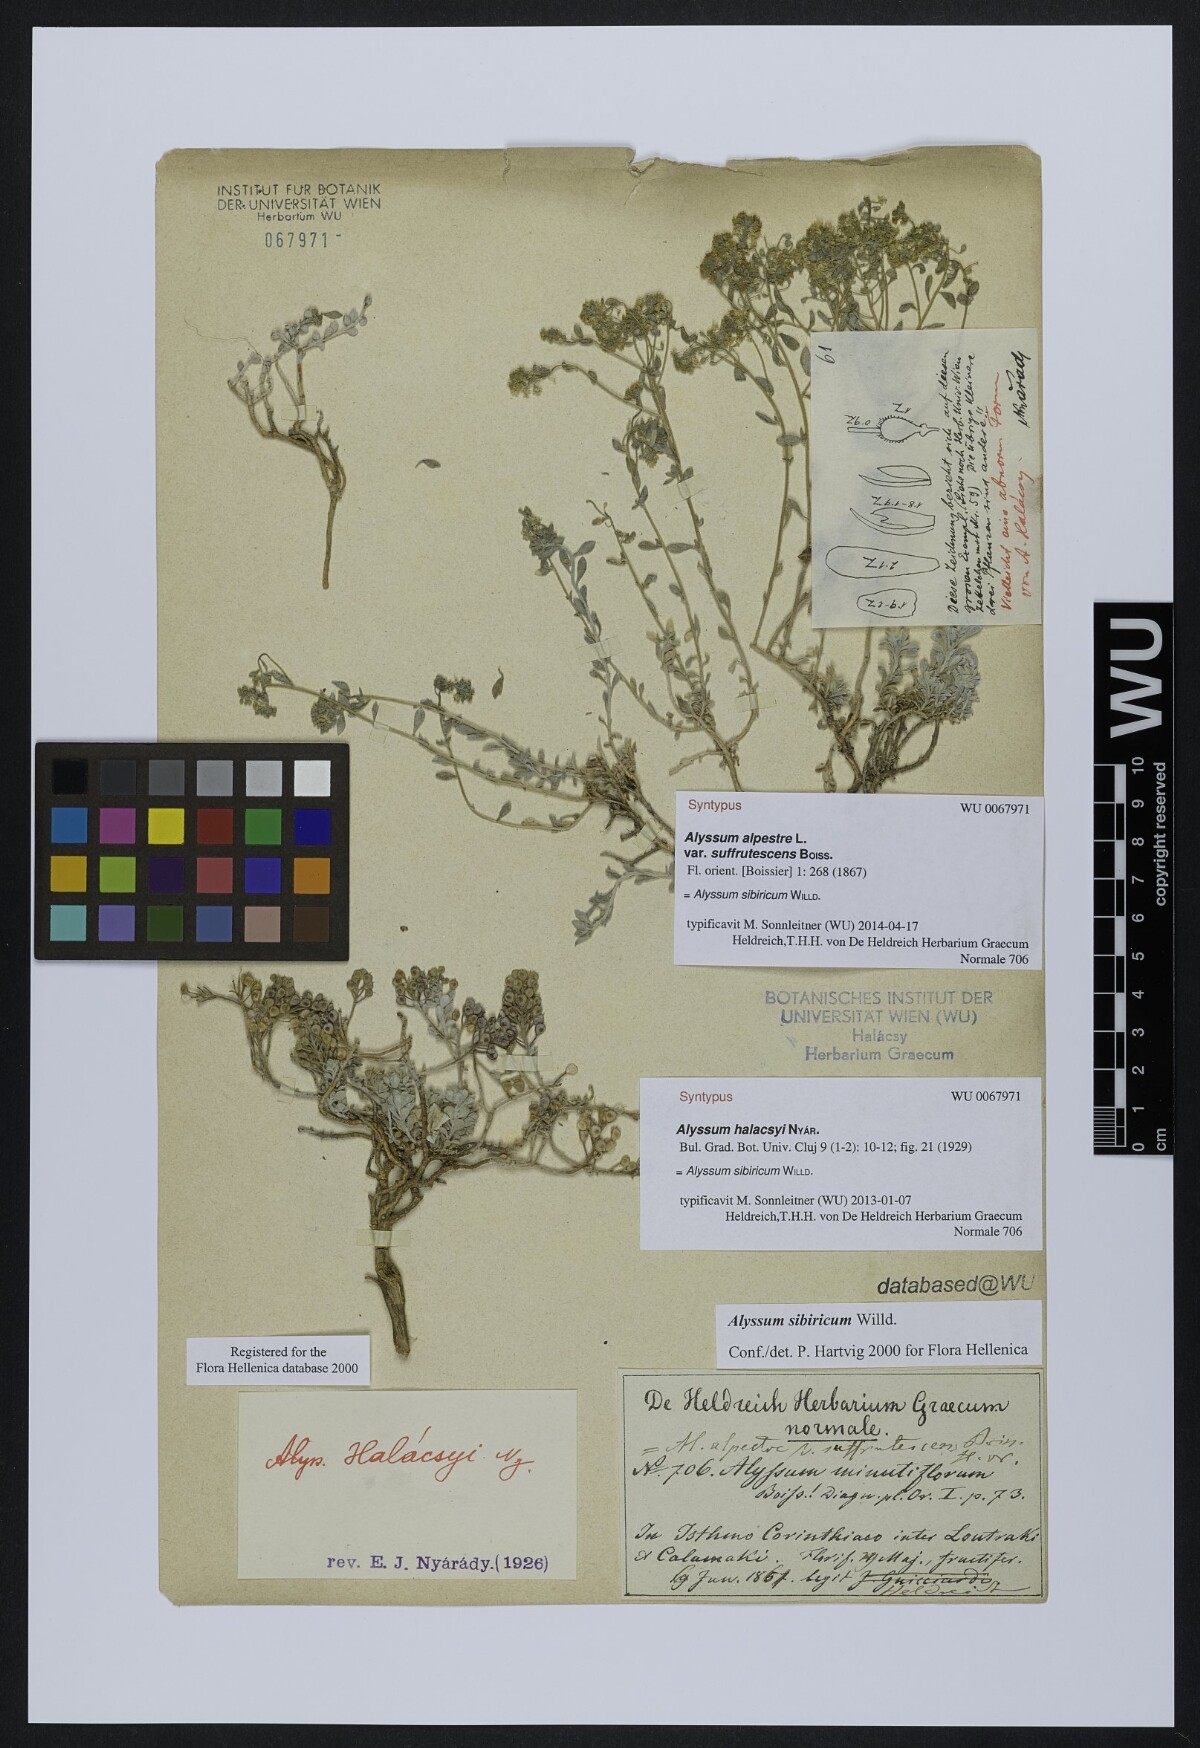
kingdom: Plantae
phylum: Tracheophyta
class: Magnoliopsida
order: Brassicales
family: Brassicaceae
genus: Odontarrhena
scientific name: Odontarrhena sibirica
